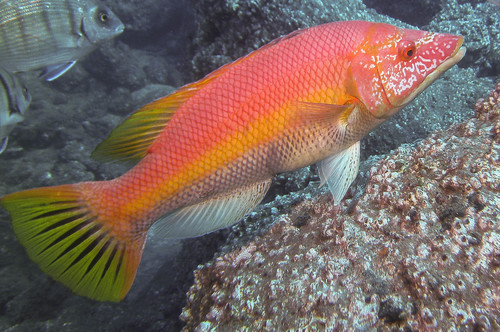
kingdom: Animalia
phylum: Chordata
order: Perciformes
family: Labridae
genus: Bodianus
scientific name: Bodianus scrofa
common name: Barred hogfish
